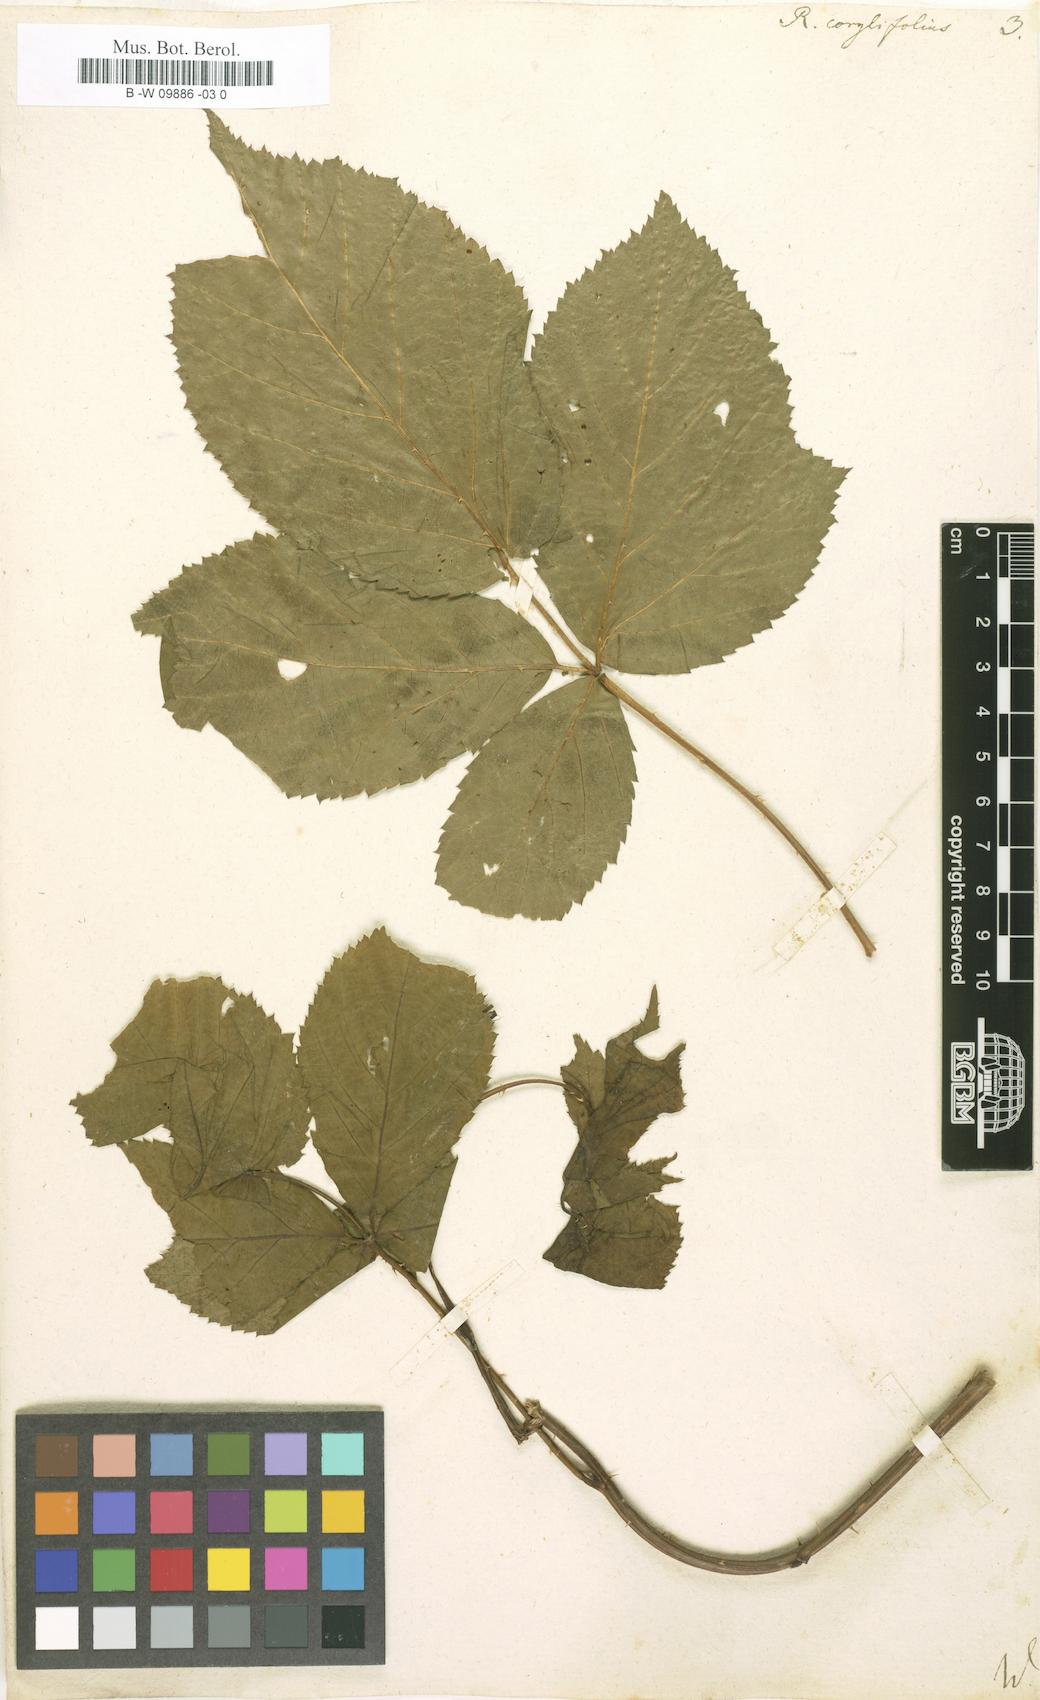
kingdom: Plantae
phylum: Tracheophyta
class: Magnoliopsida
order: Rosales
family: Rosaceae
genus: Rubus
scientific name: Rubus
